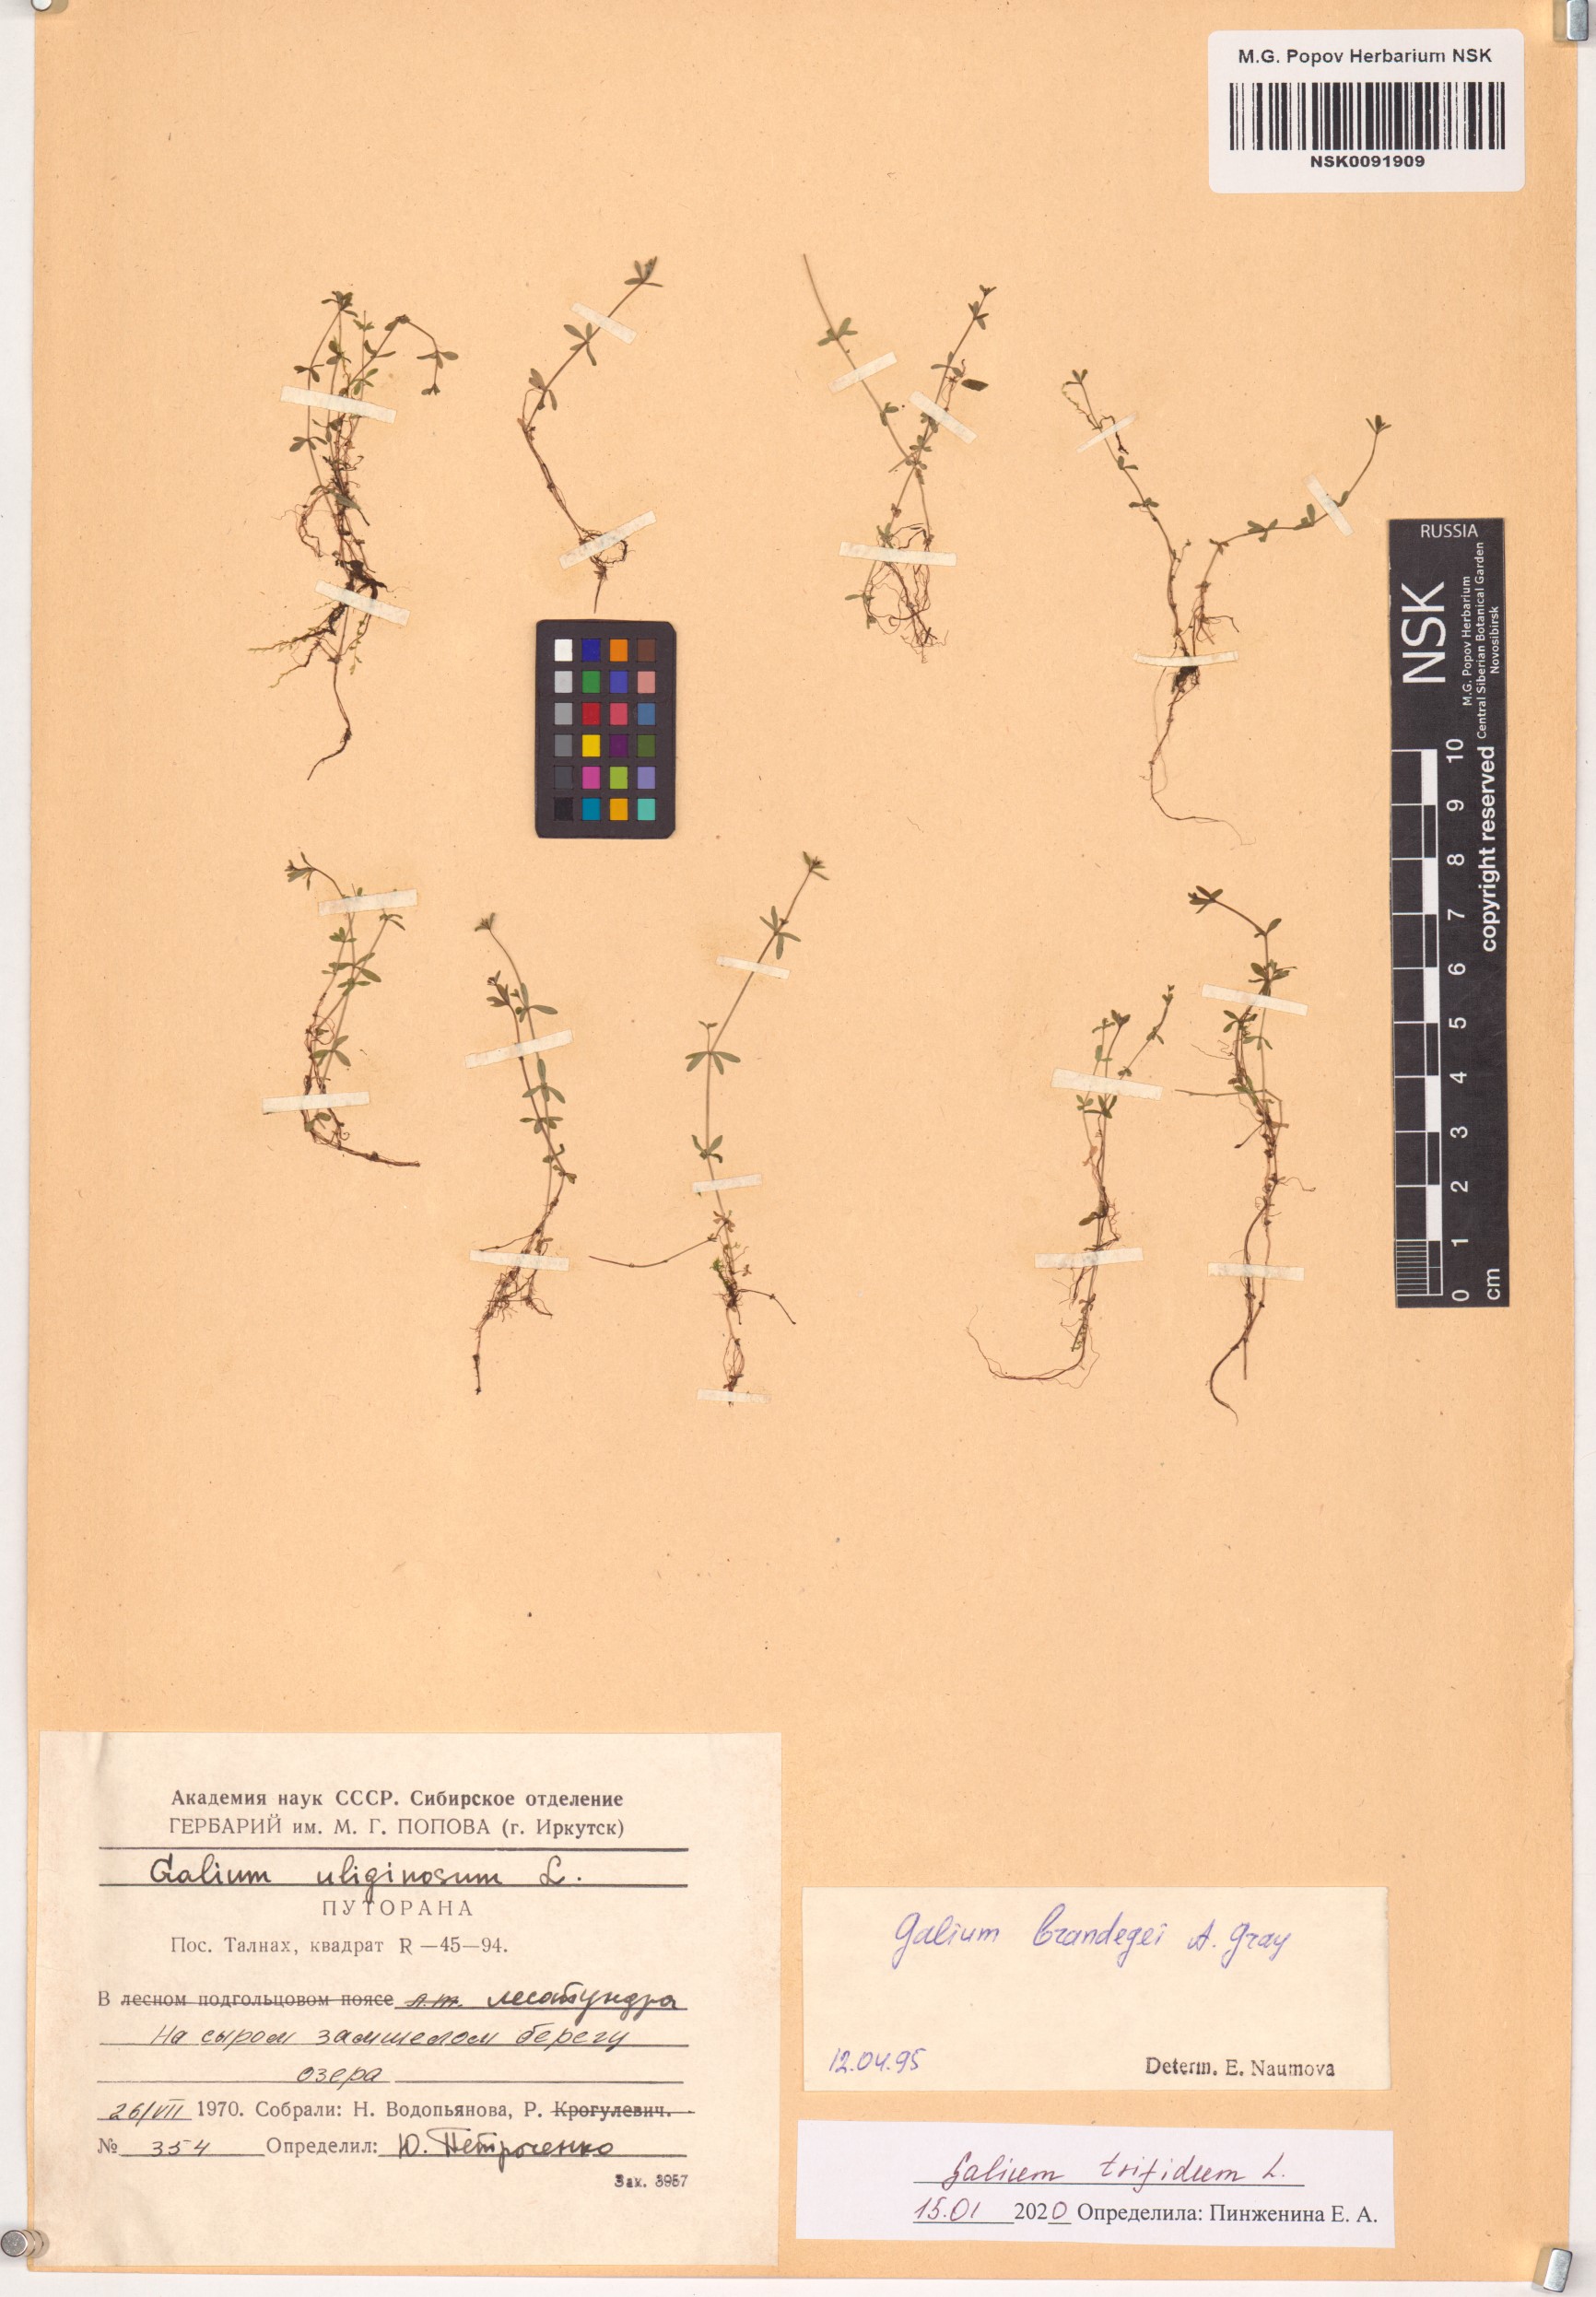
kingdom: Plantae
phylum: Tracheophyta
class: Magnoliopsida
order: Gentianales
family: Rubiaceae
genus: Galium
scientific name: Galium trifidum
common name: Small bedstraw
